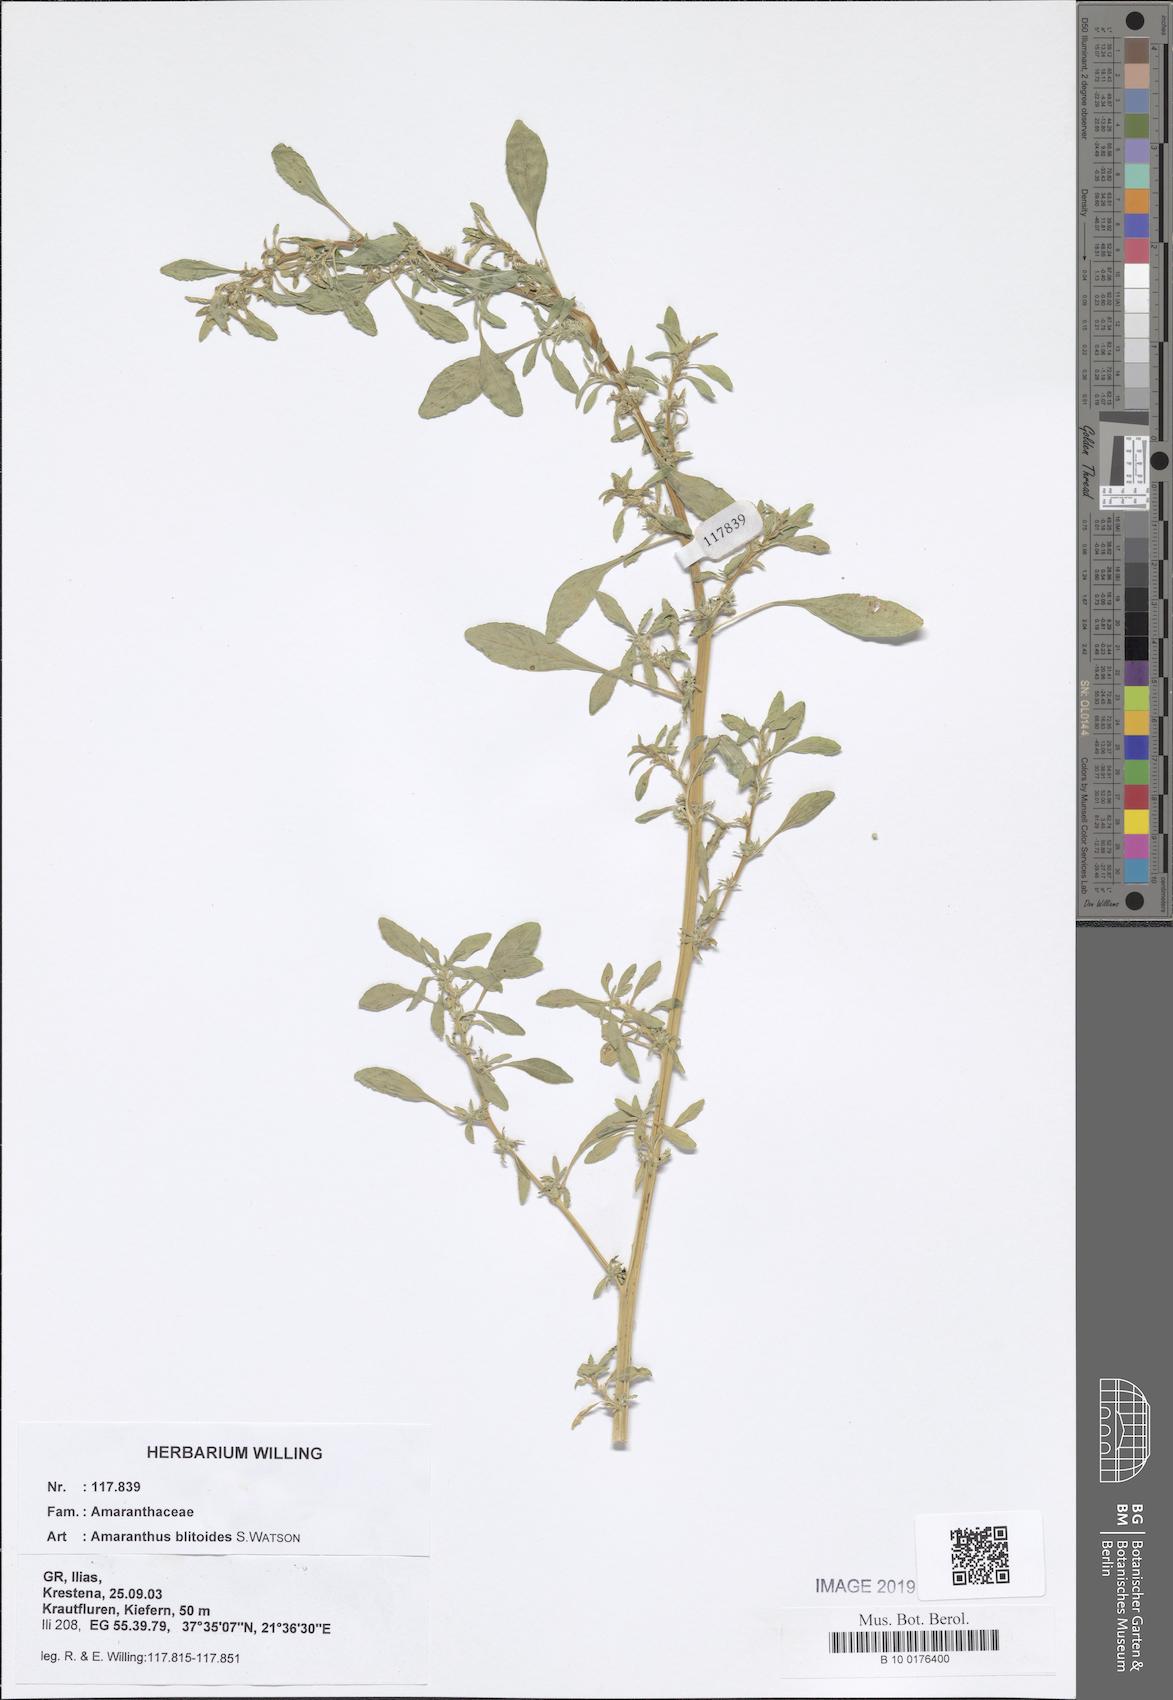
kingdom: Plantae
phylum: Tracheophyta
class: Magnoliopsida
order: Caryophyllales
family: Amaranthaceae
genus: Amaranthus
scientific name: Amaranthus blitoides
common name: Prostrate pigweed
